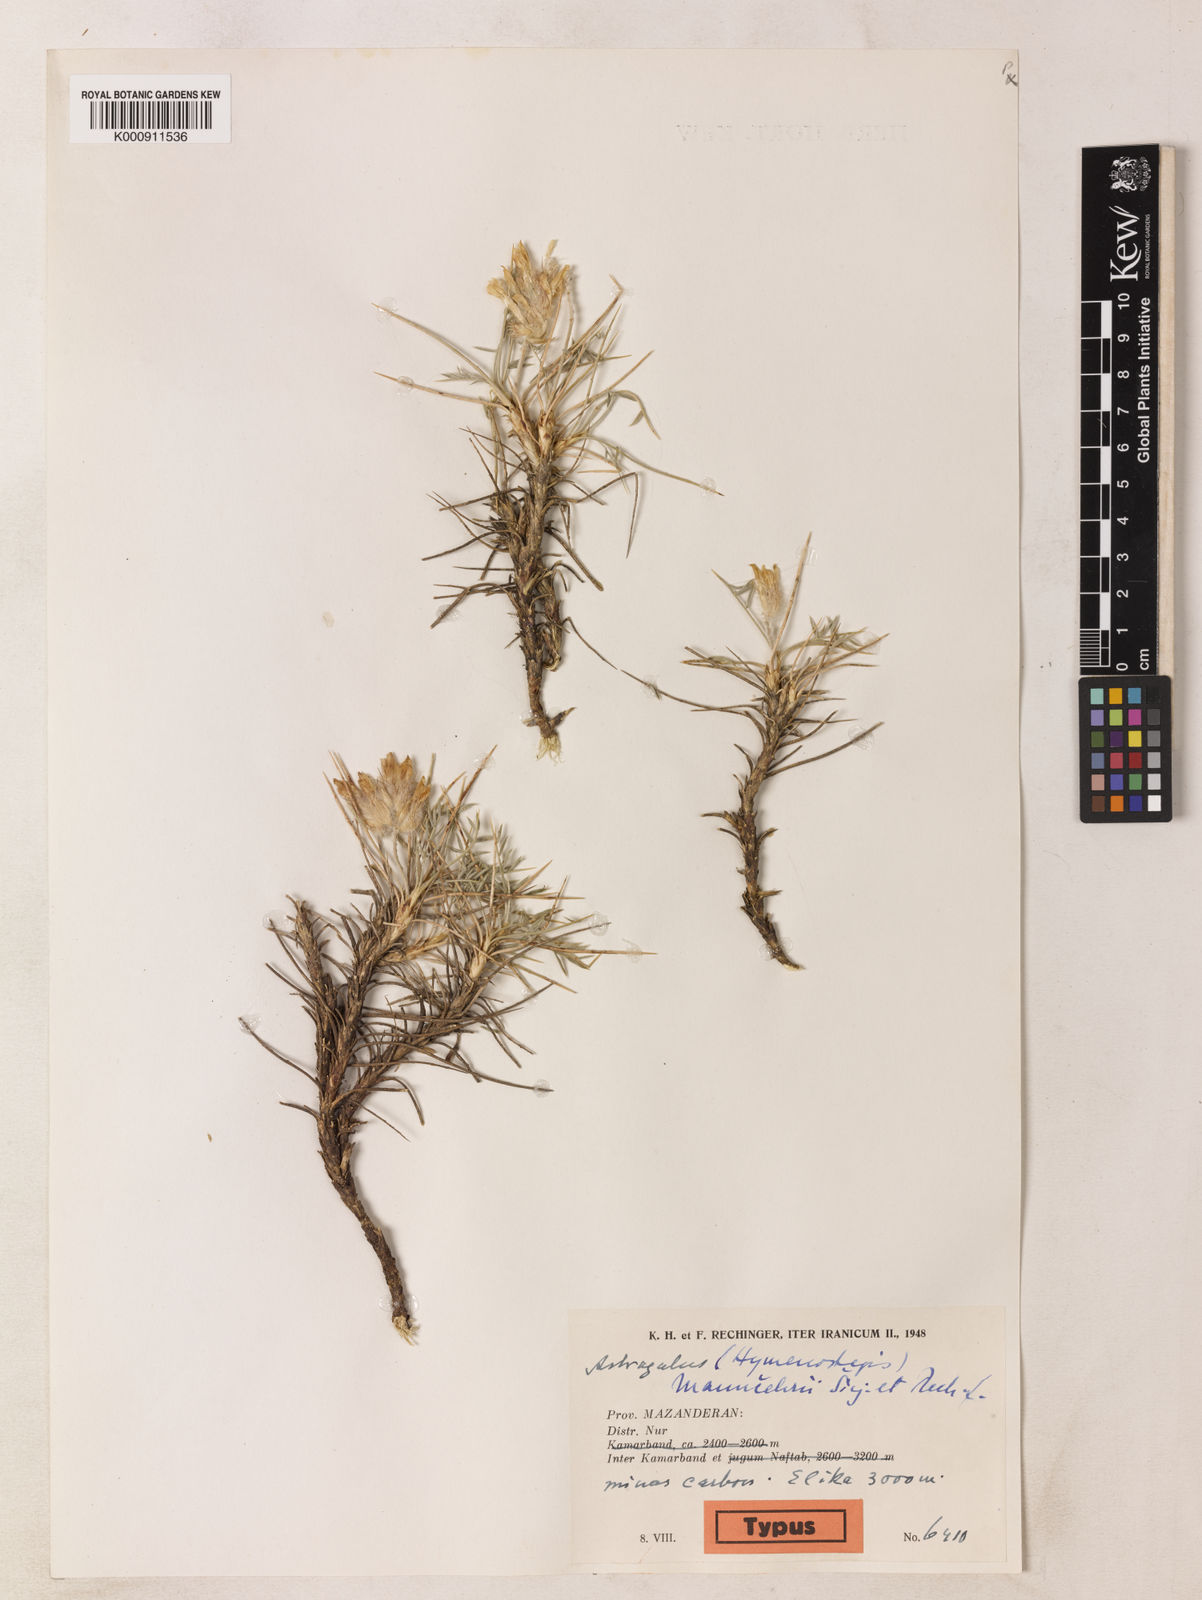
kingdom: Plantae
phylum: Tracheophyta
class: Magnoliopsida
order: Fabales
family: Fabaceae
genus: Astragalus
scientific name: Astragalus persicus
